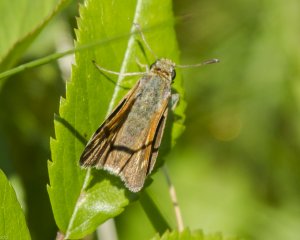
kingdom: Animalia
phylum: Arthropoda
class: Insecta
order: Lepidoptera
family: Hesperiidae
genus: Polites
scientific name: Polites themistocles
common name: Tawny-edged Skipper
